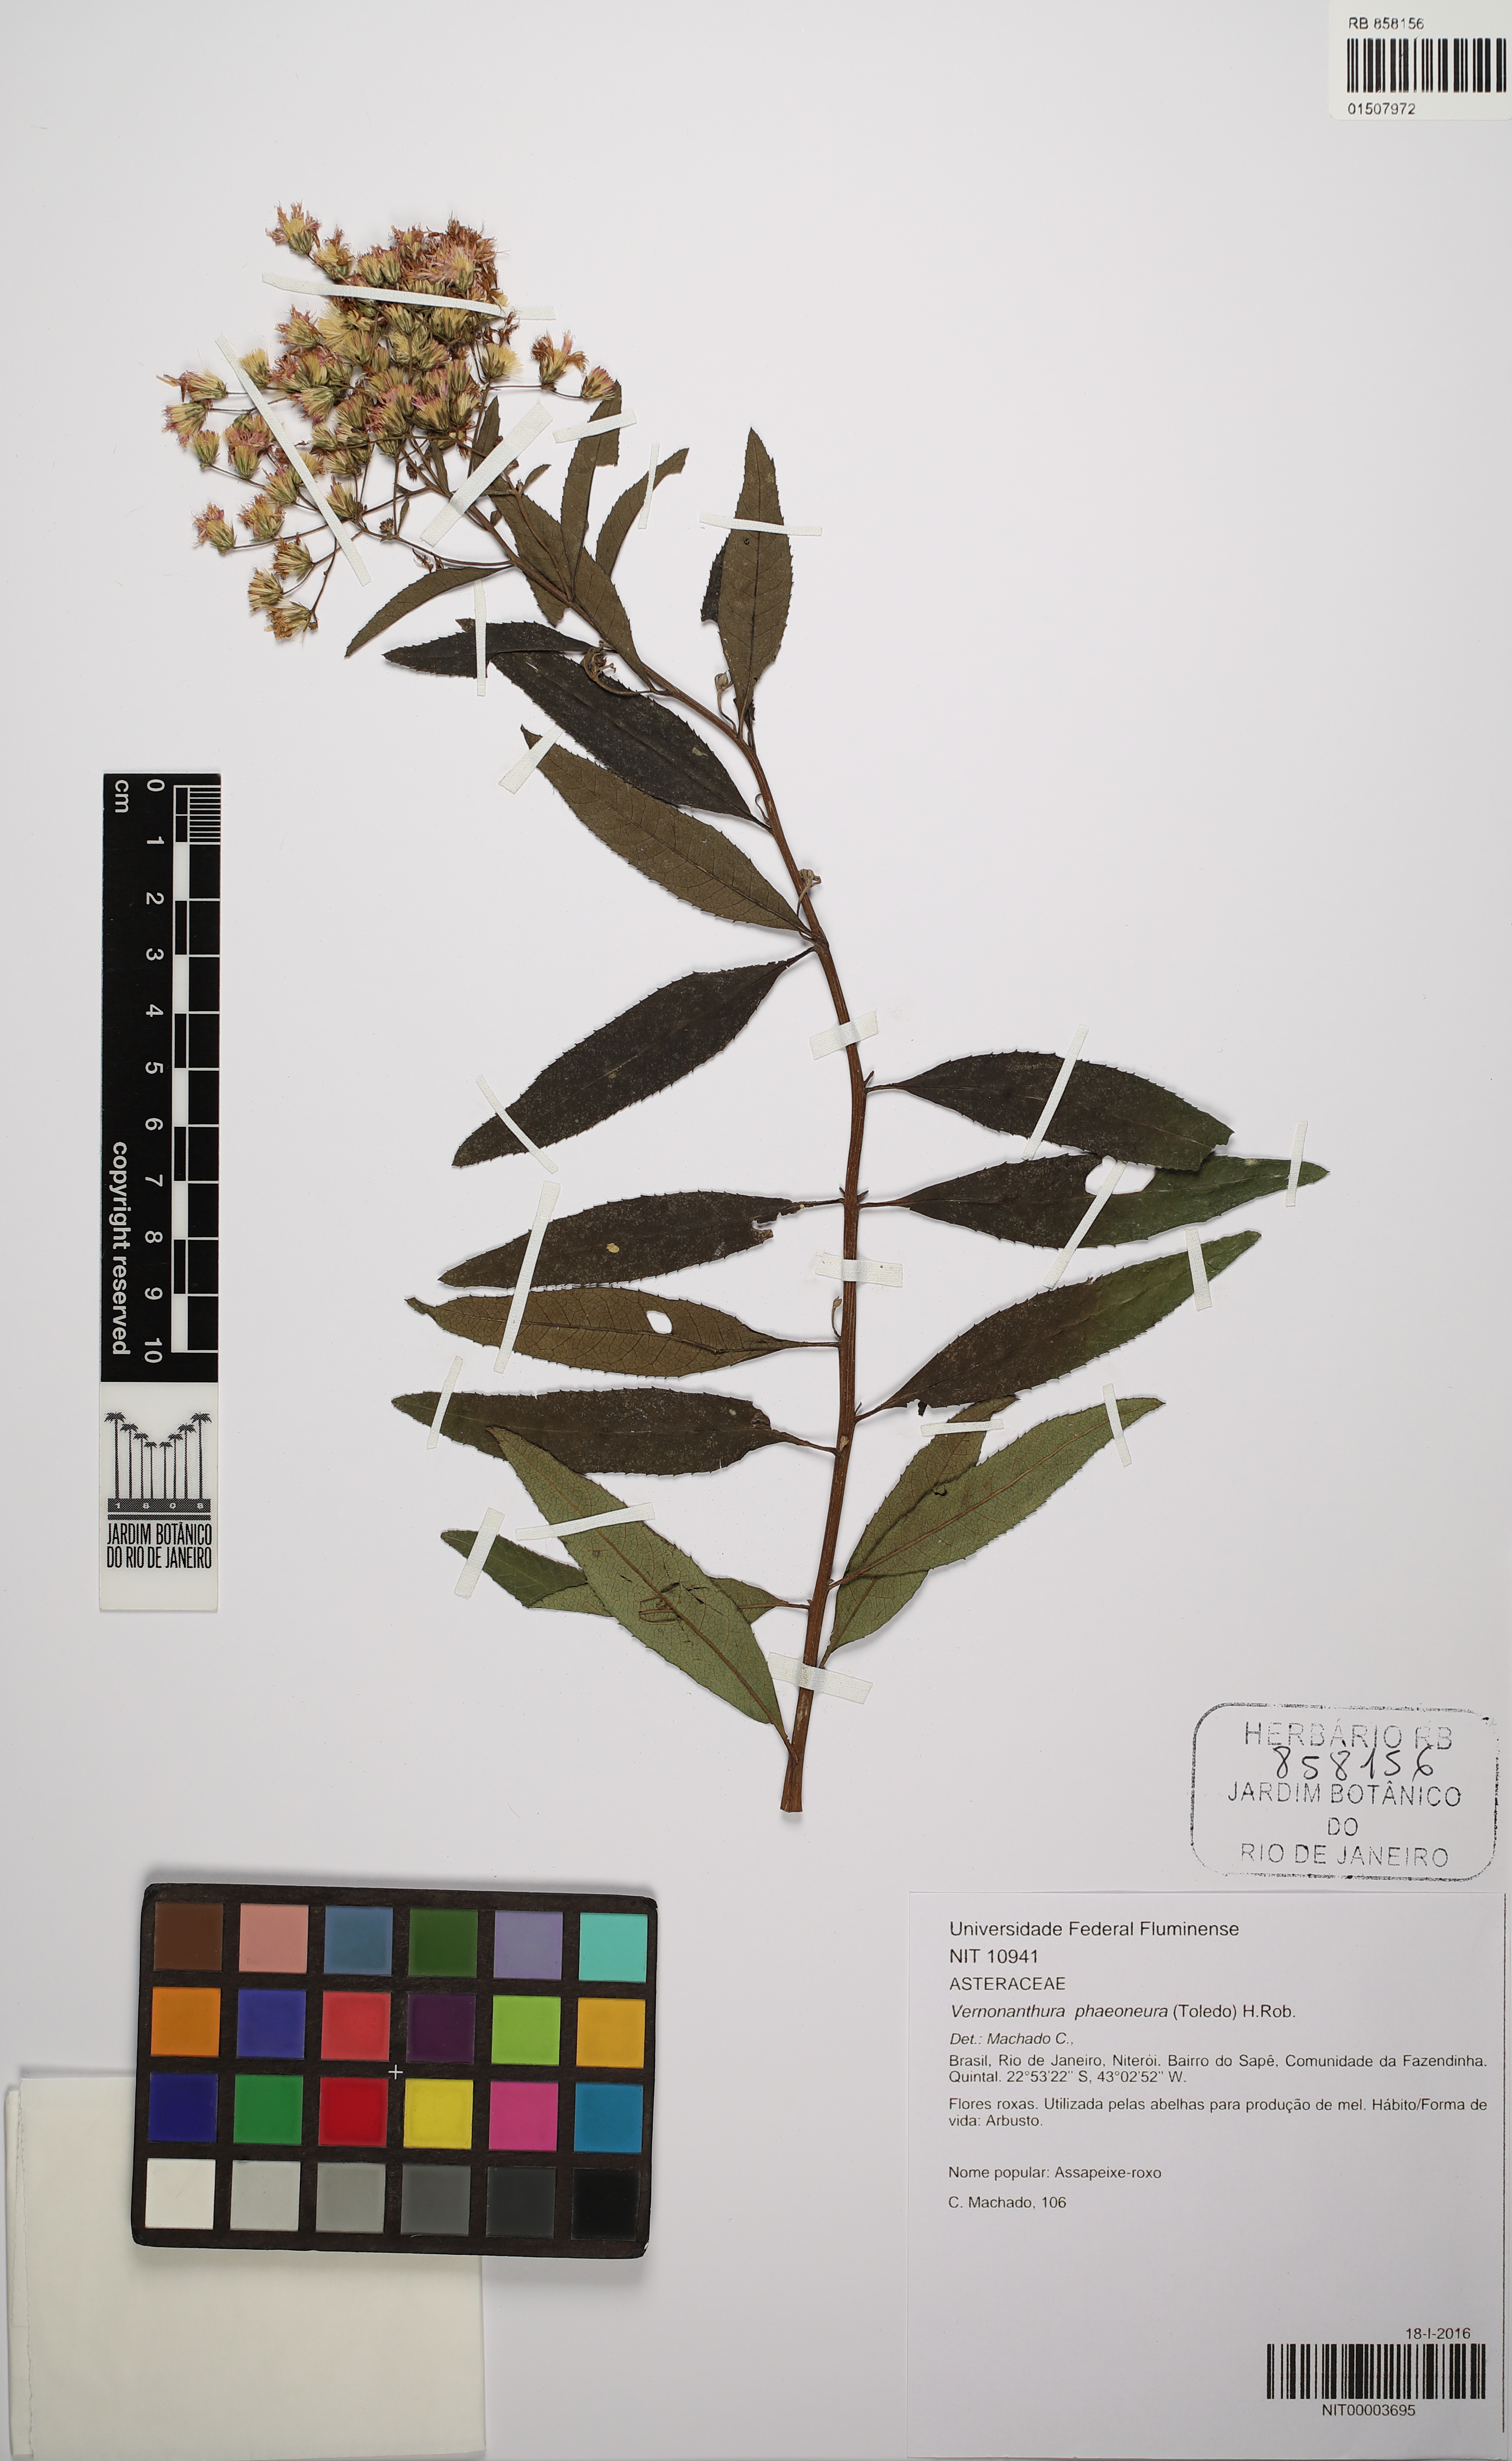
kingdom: Plantae
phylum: Tracheophyta
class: Magnoliopsida
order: Asterales
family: Asteraceae
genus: Vernonanthura
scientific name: Vernonanthura phaeoneura
